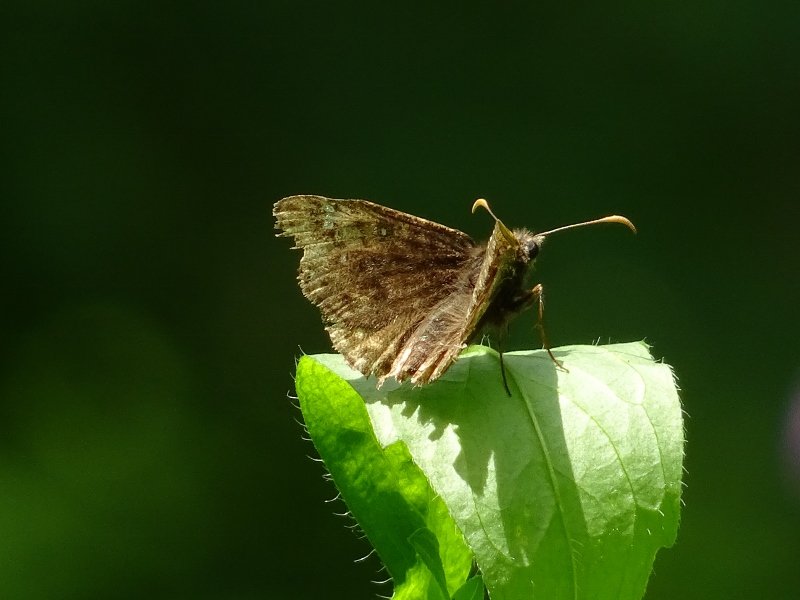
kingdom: Animalia
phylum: Arthropoda
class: Insecta
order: Lepidoptera
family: Hesperiidae
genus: Gesta
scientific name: Gesta
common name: Juvenal's Duskywing
